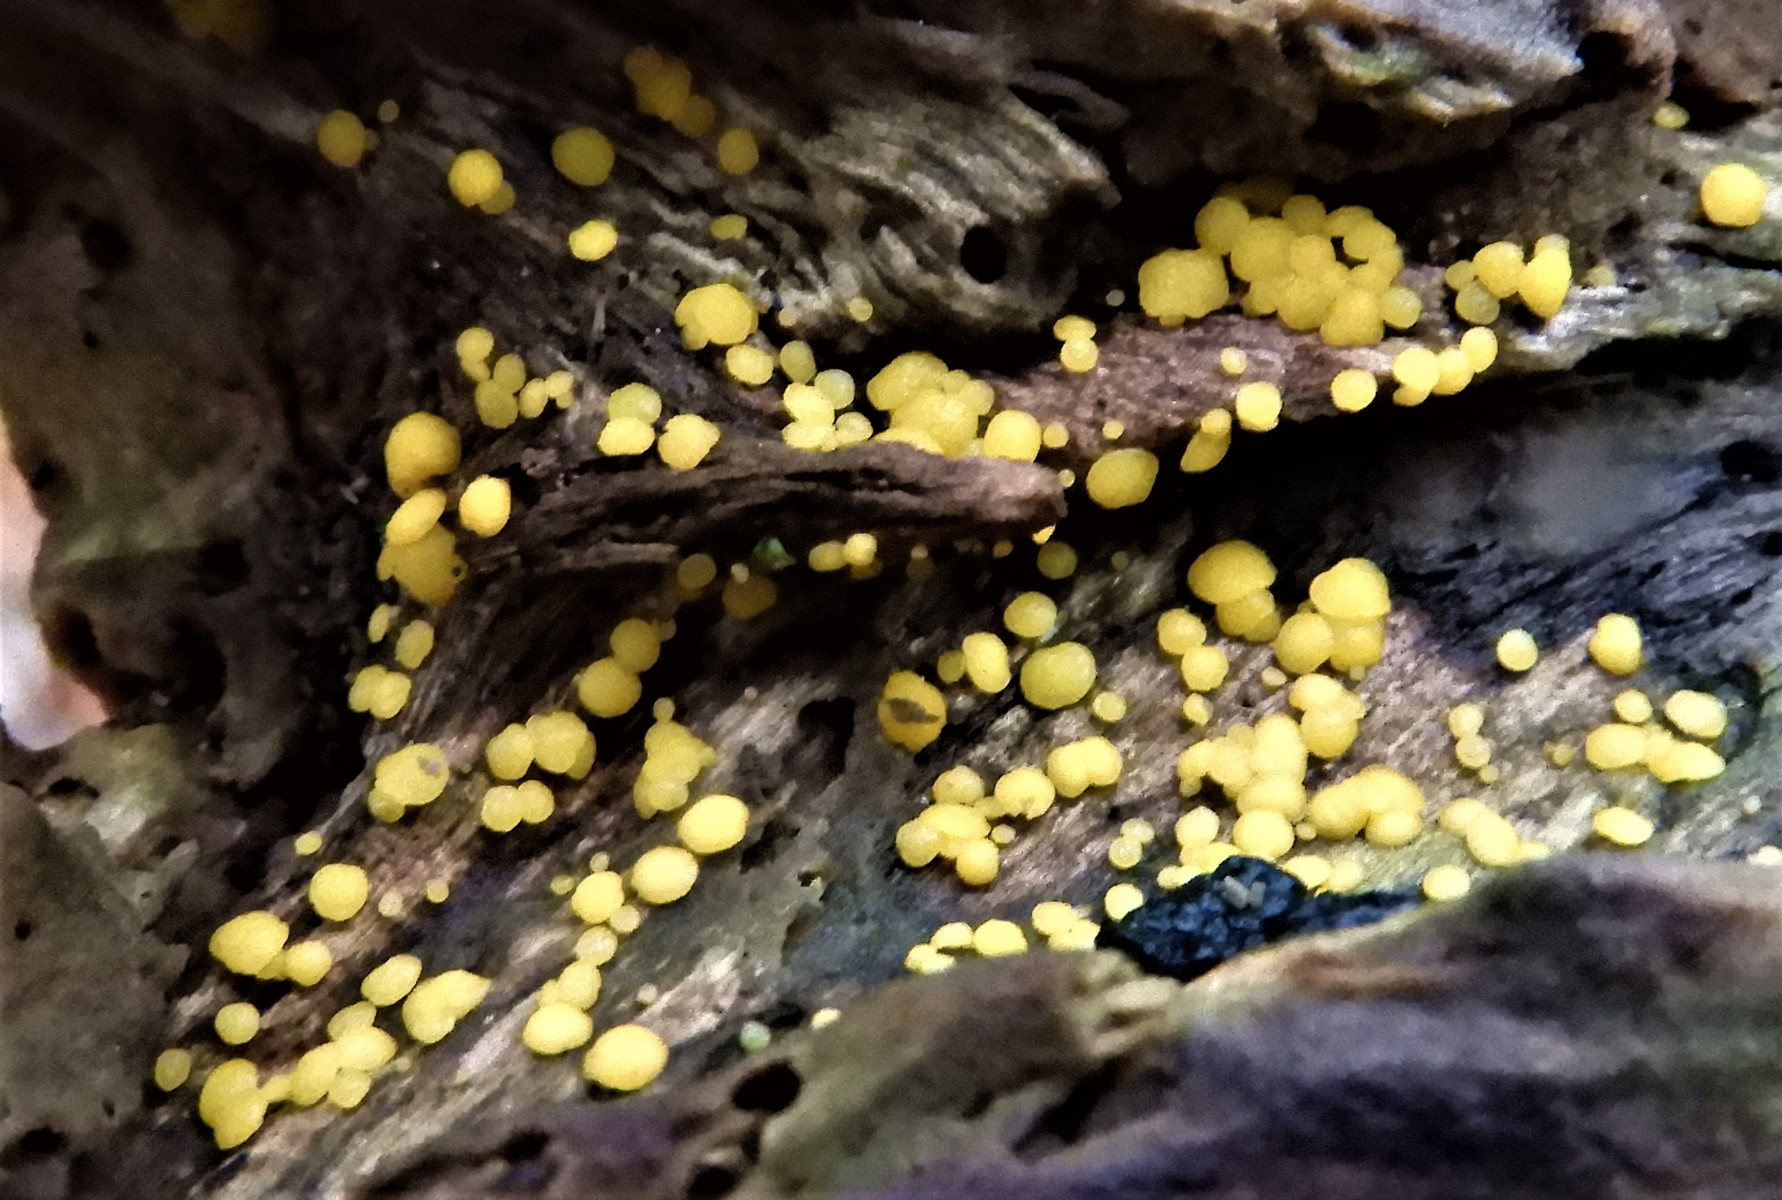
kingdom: Fungi
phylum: Ascomycota
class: Leotiomycetes
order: Helotiales
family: Pezizellaceae
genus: Calycina
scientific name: Calycina citrina
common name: almindelig gulskive
